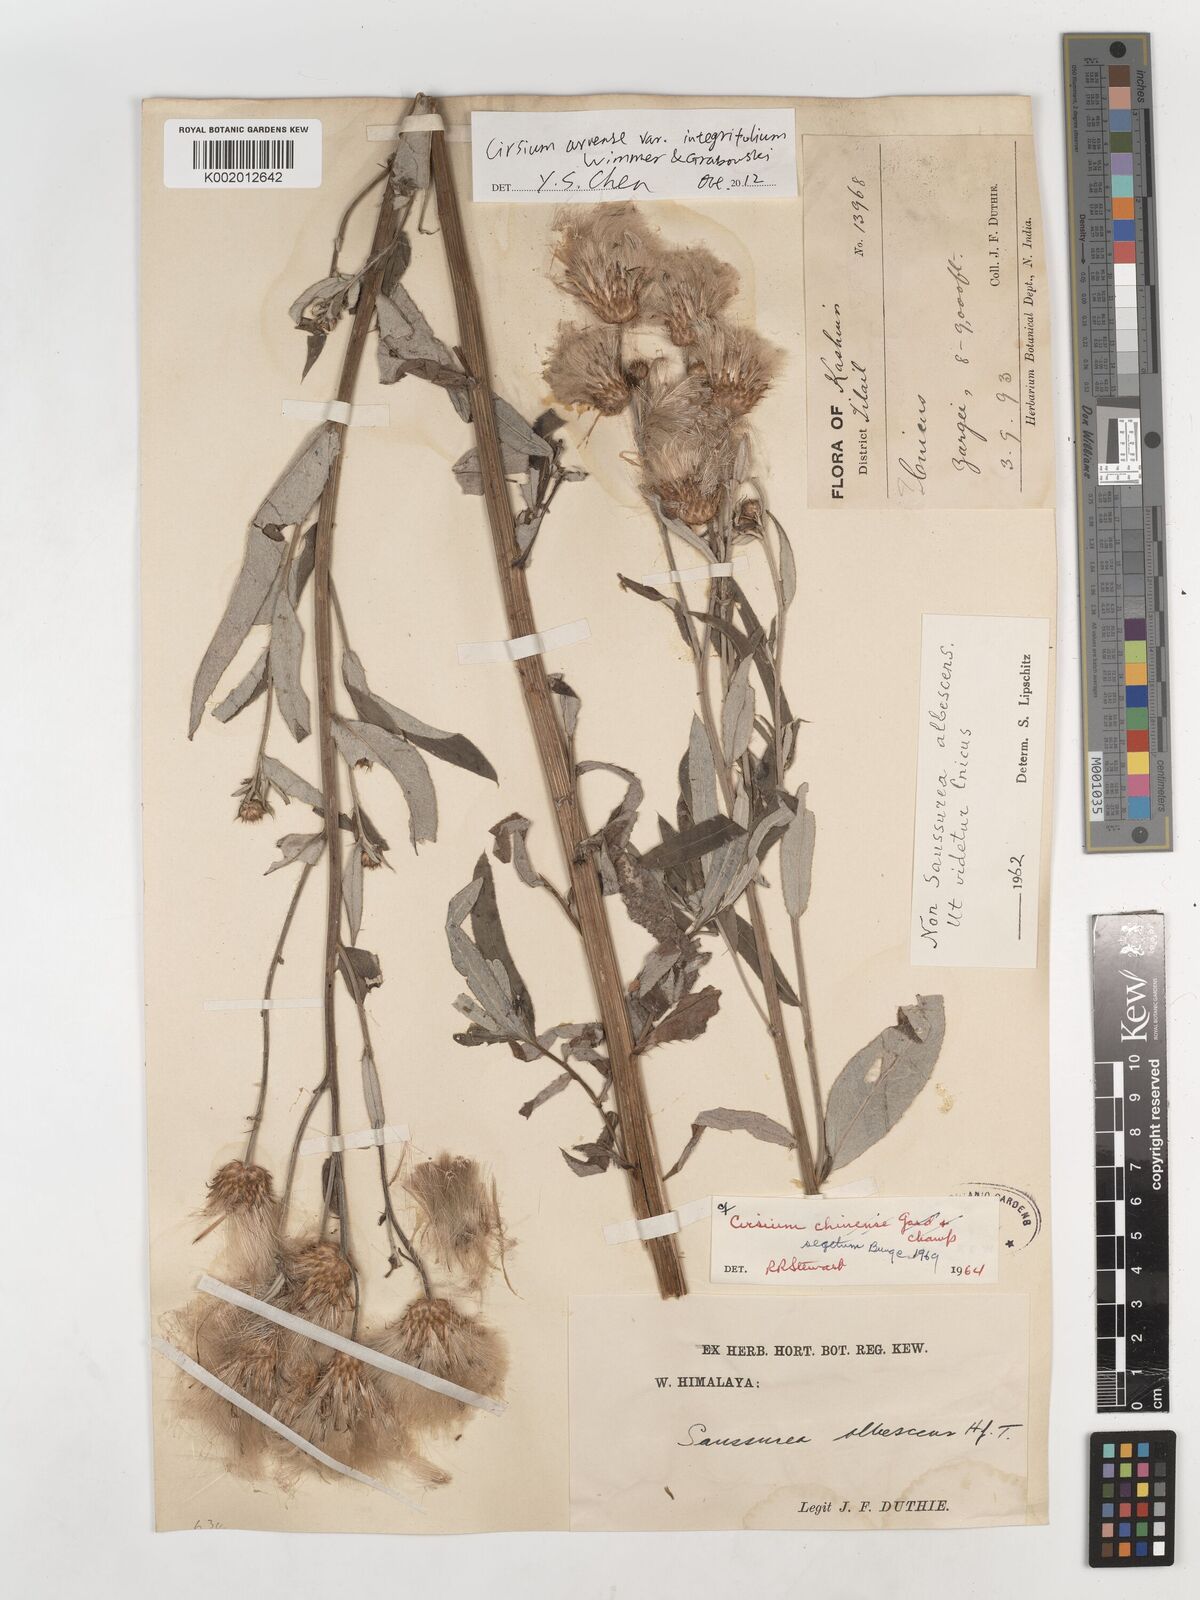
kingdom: Plantae
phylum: Tracheophyta
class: Magnoliopsida
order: Asterales
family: Asteraceae
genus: Cirsium
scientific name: Cirsium chinense
